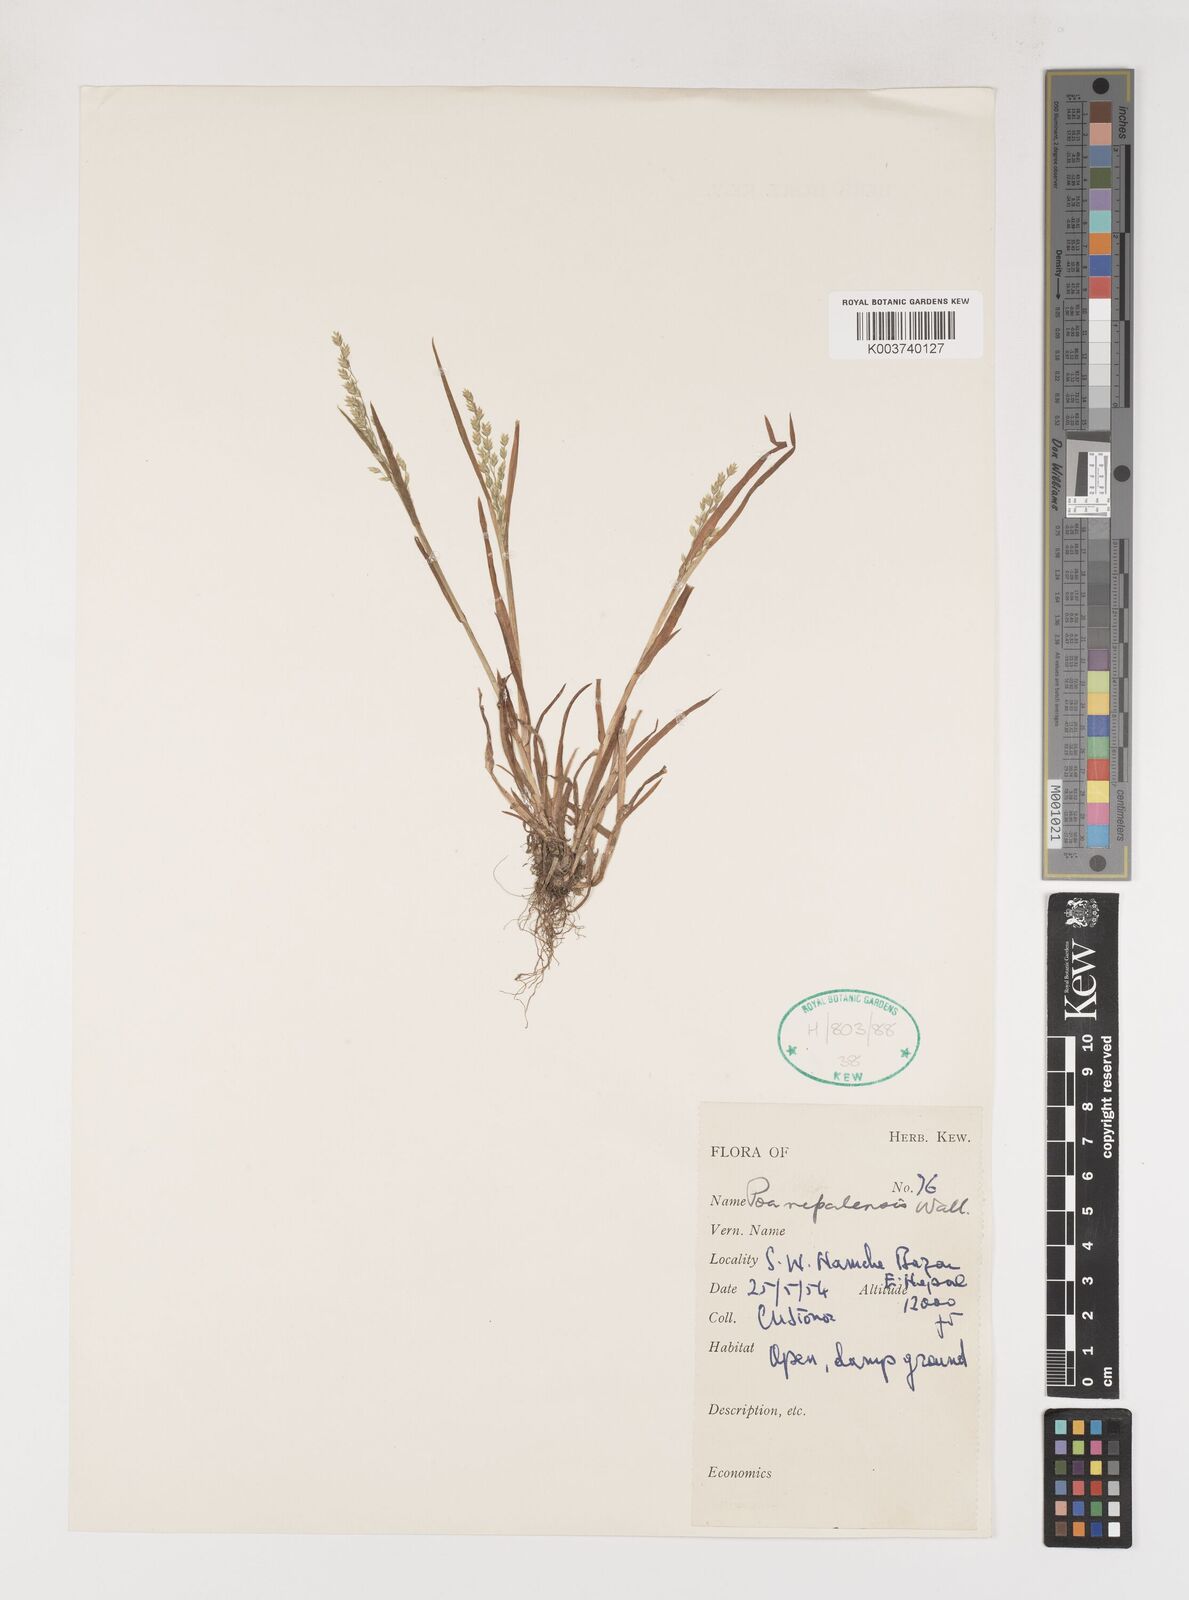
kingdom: Plantae
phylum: Tracheophyta
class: Liliopsida
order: Poales
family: Poaceae
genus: Poa
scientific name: Poa nepalensis
